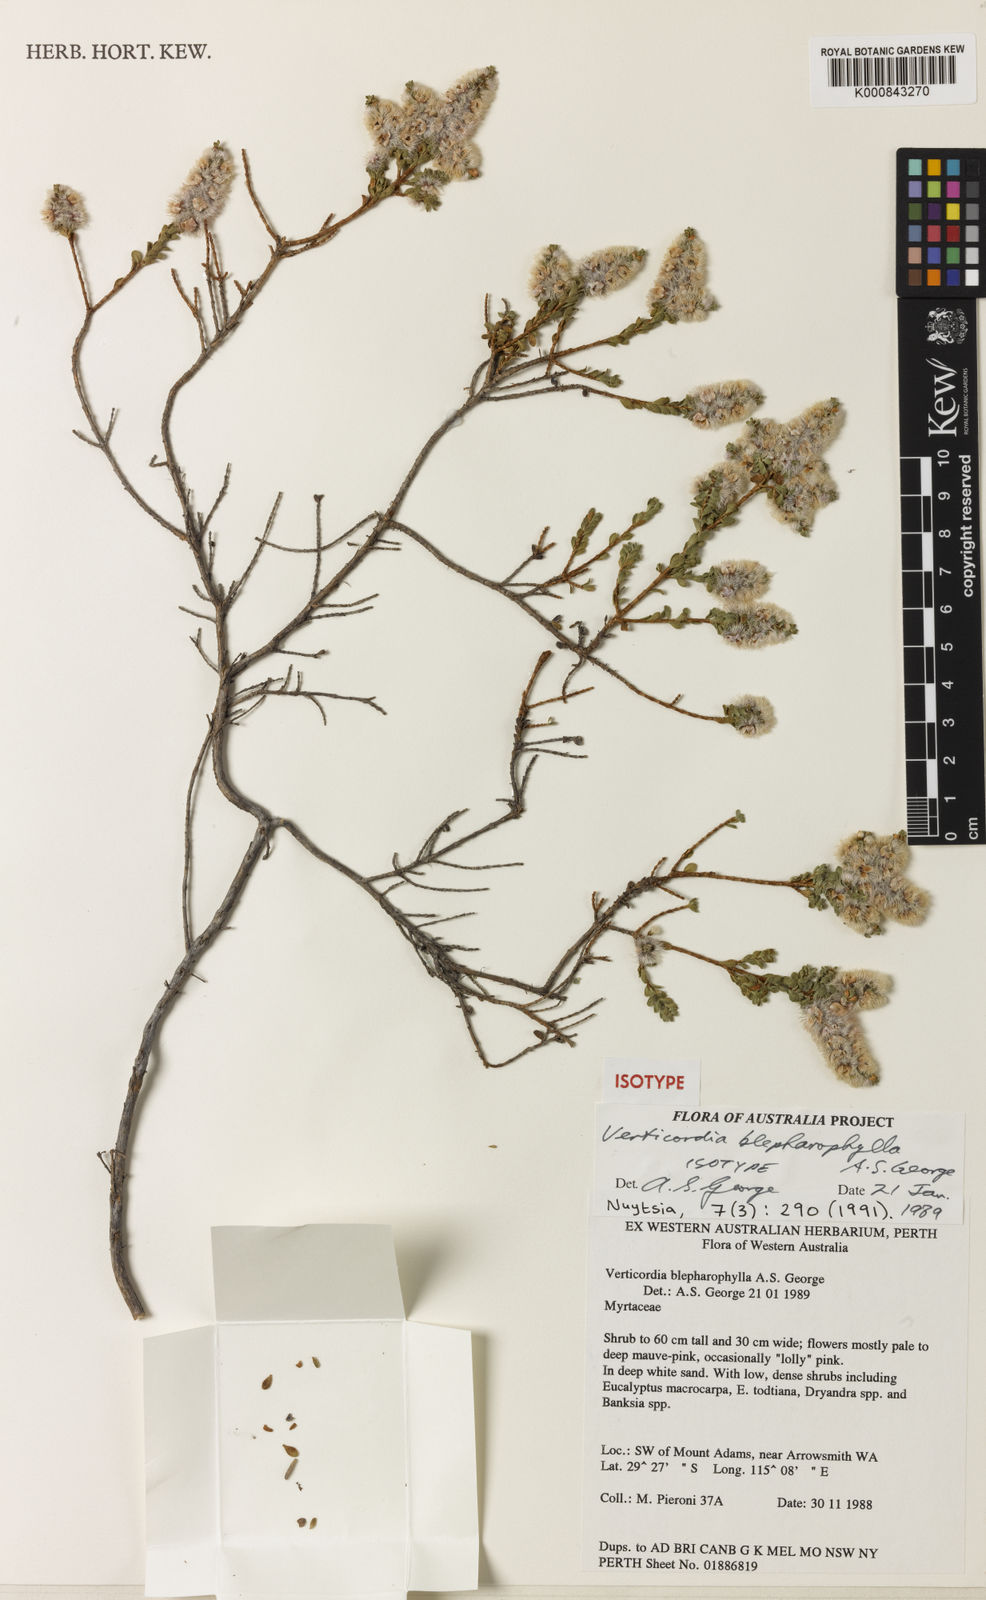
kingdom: Plantae
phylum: Tracheophyta
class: Magnoliopsida
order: Myrtales
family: Myrtaceae
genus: Verticordia
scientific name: Verticordia blepharophylla
